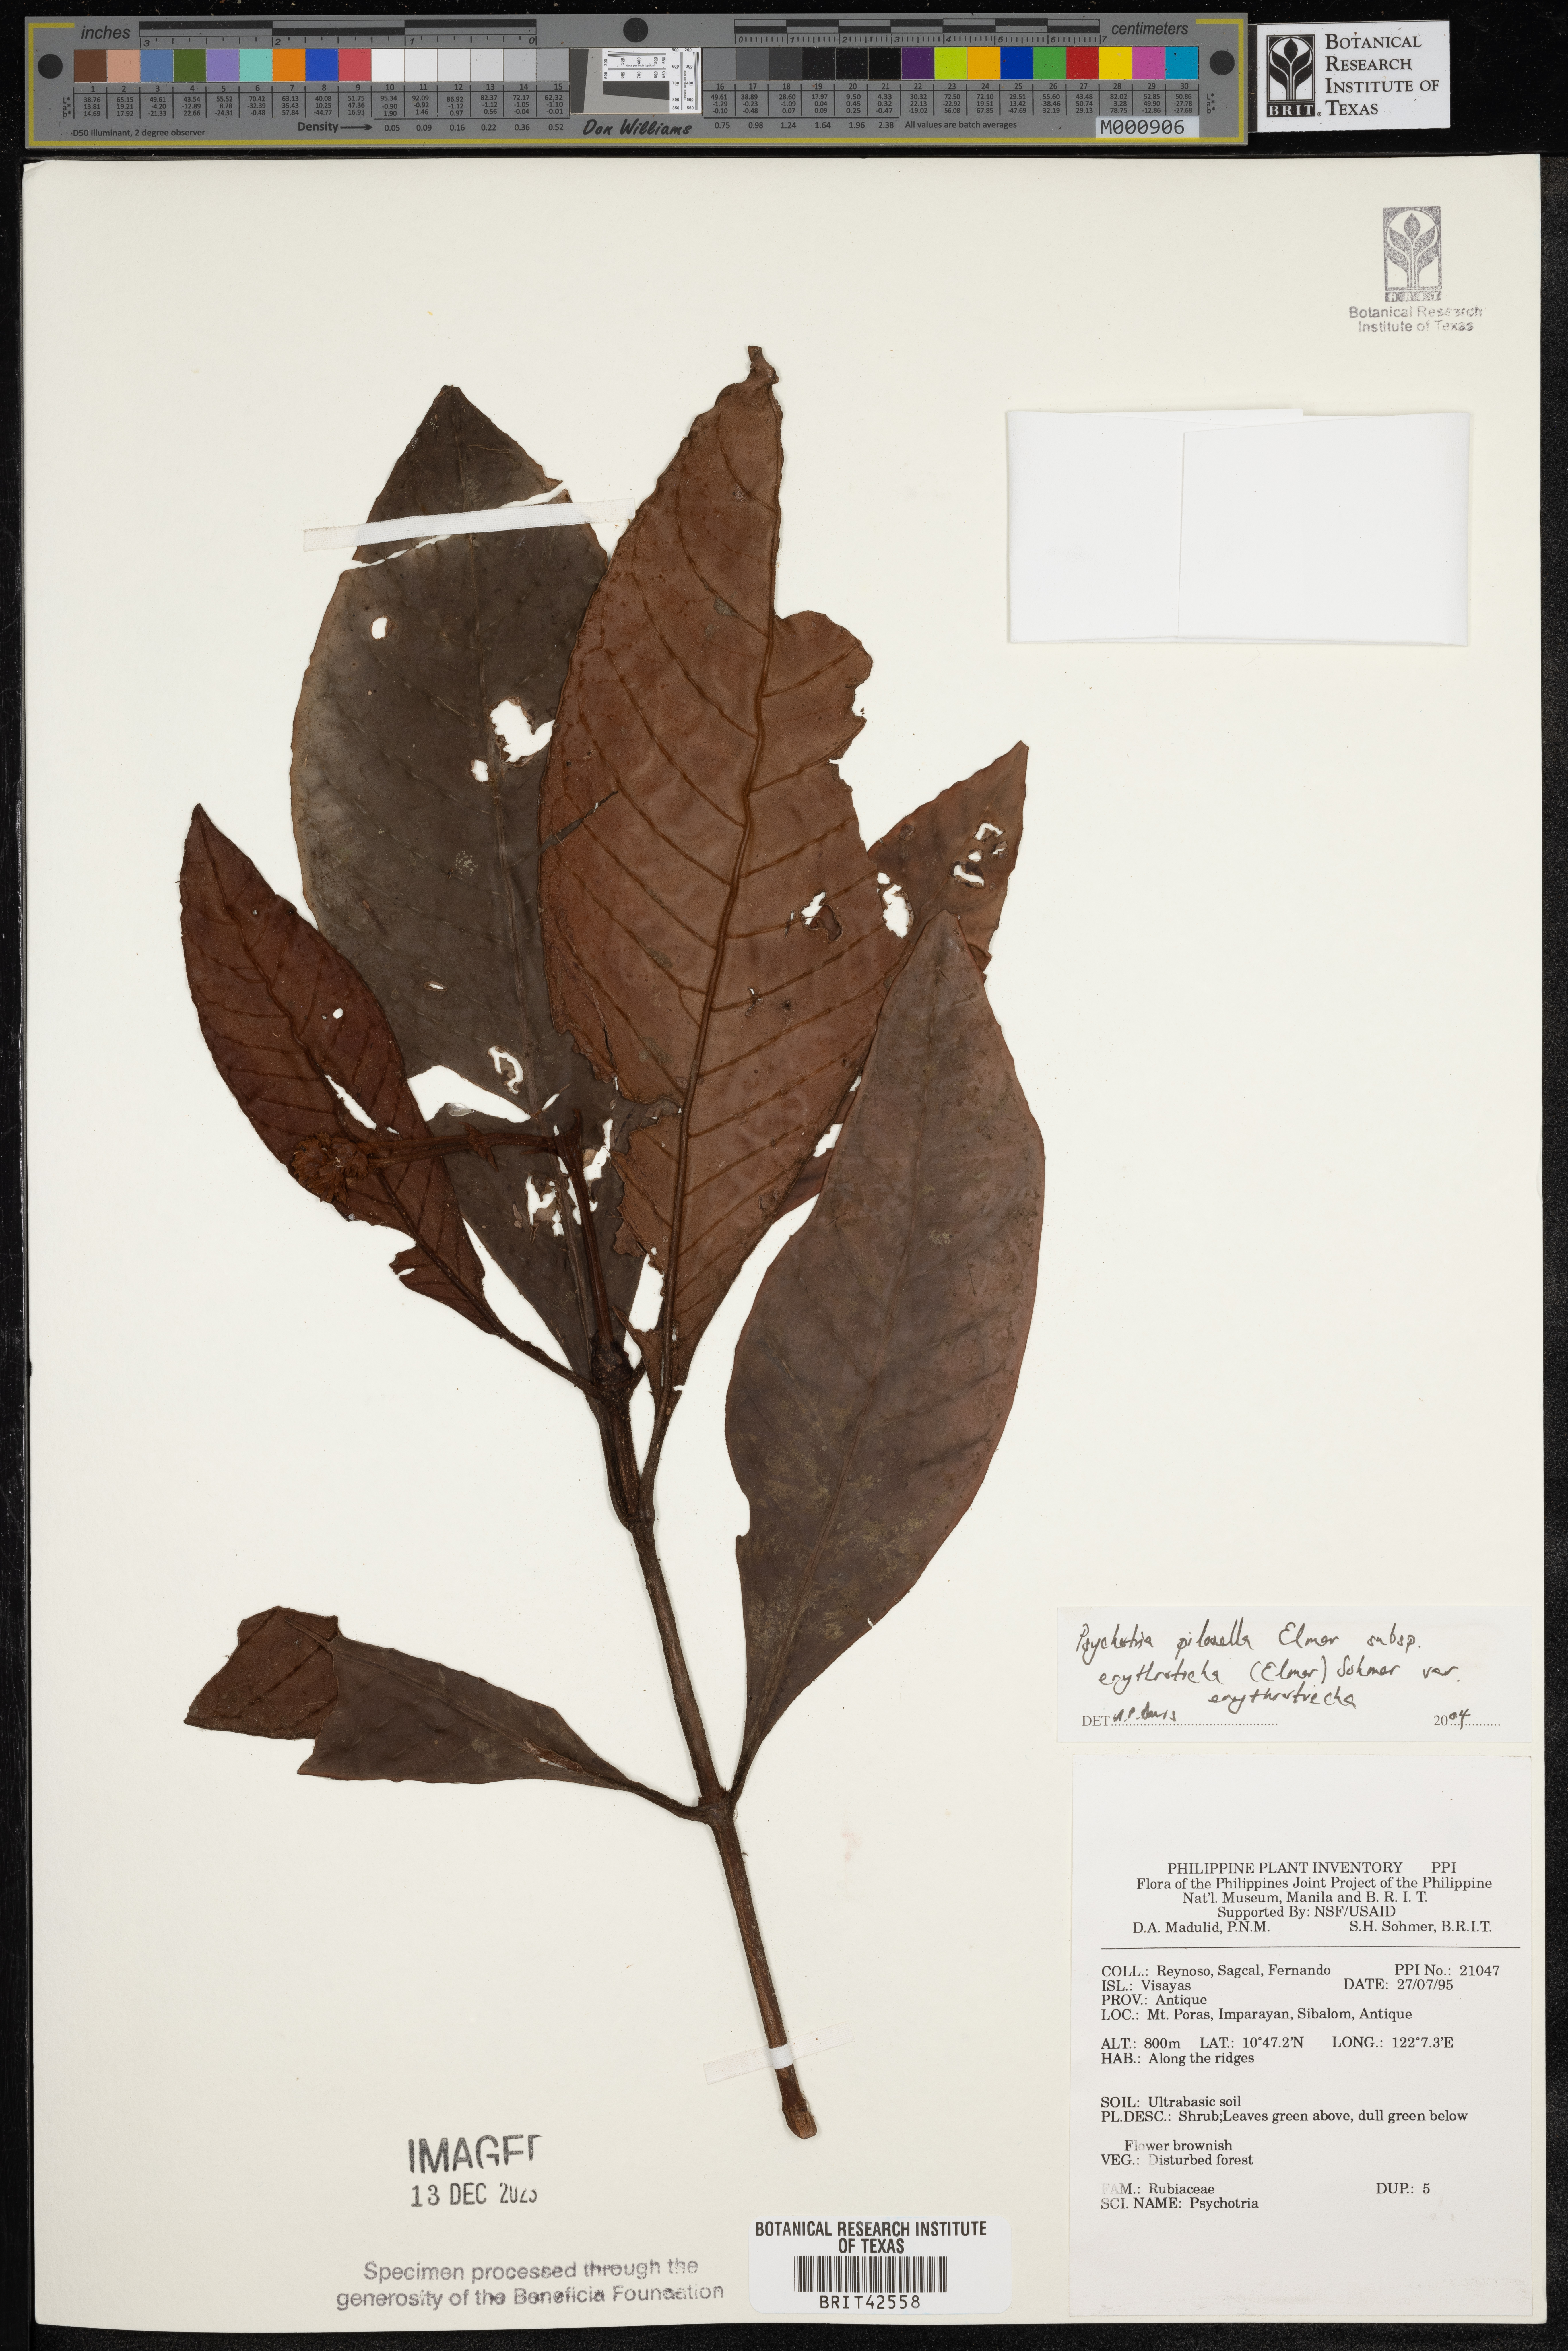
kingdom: Plantae
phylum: Tracheophyta
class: Magnoliopsida
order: Gentianales
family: Rubiaceae
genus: Psychotria
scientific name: Psychotria pilosella
